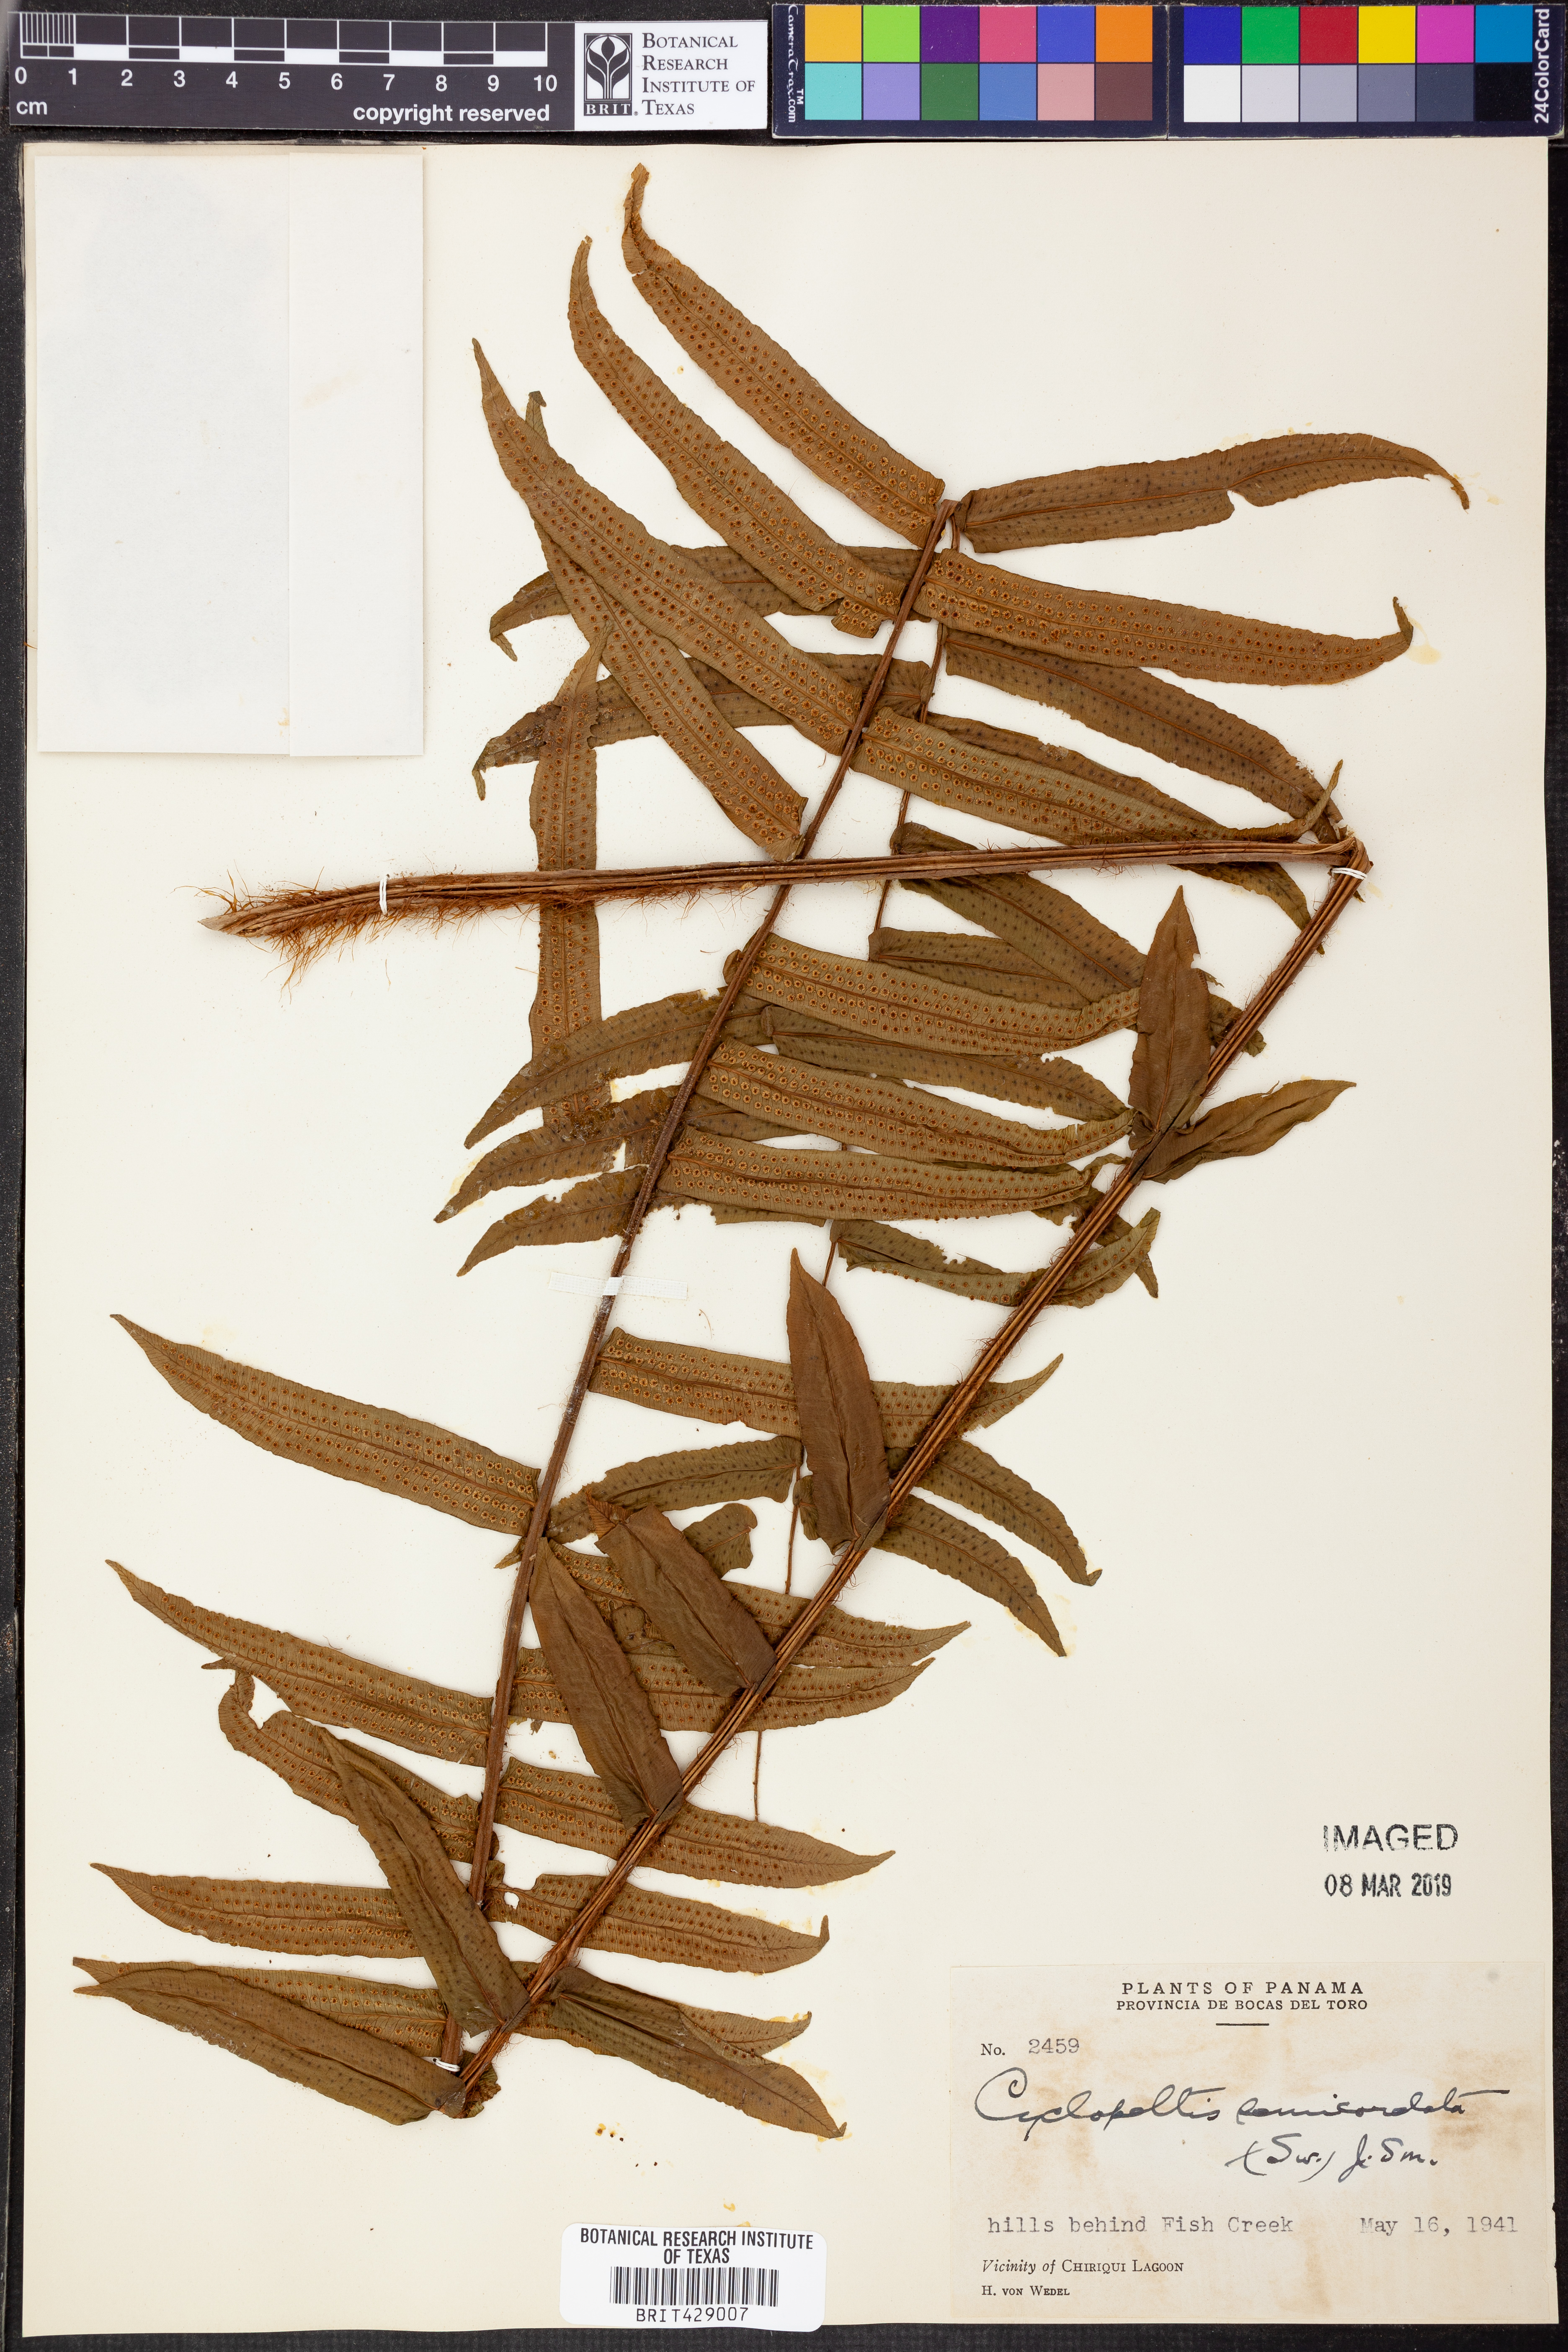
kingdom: Plantae
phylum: Tracheophyta
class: Polypodiopsida
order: Polypodiales
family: Lomariopsidaceae
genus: Cyclopeltis
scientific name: Cyclopeltis semicordata
